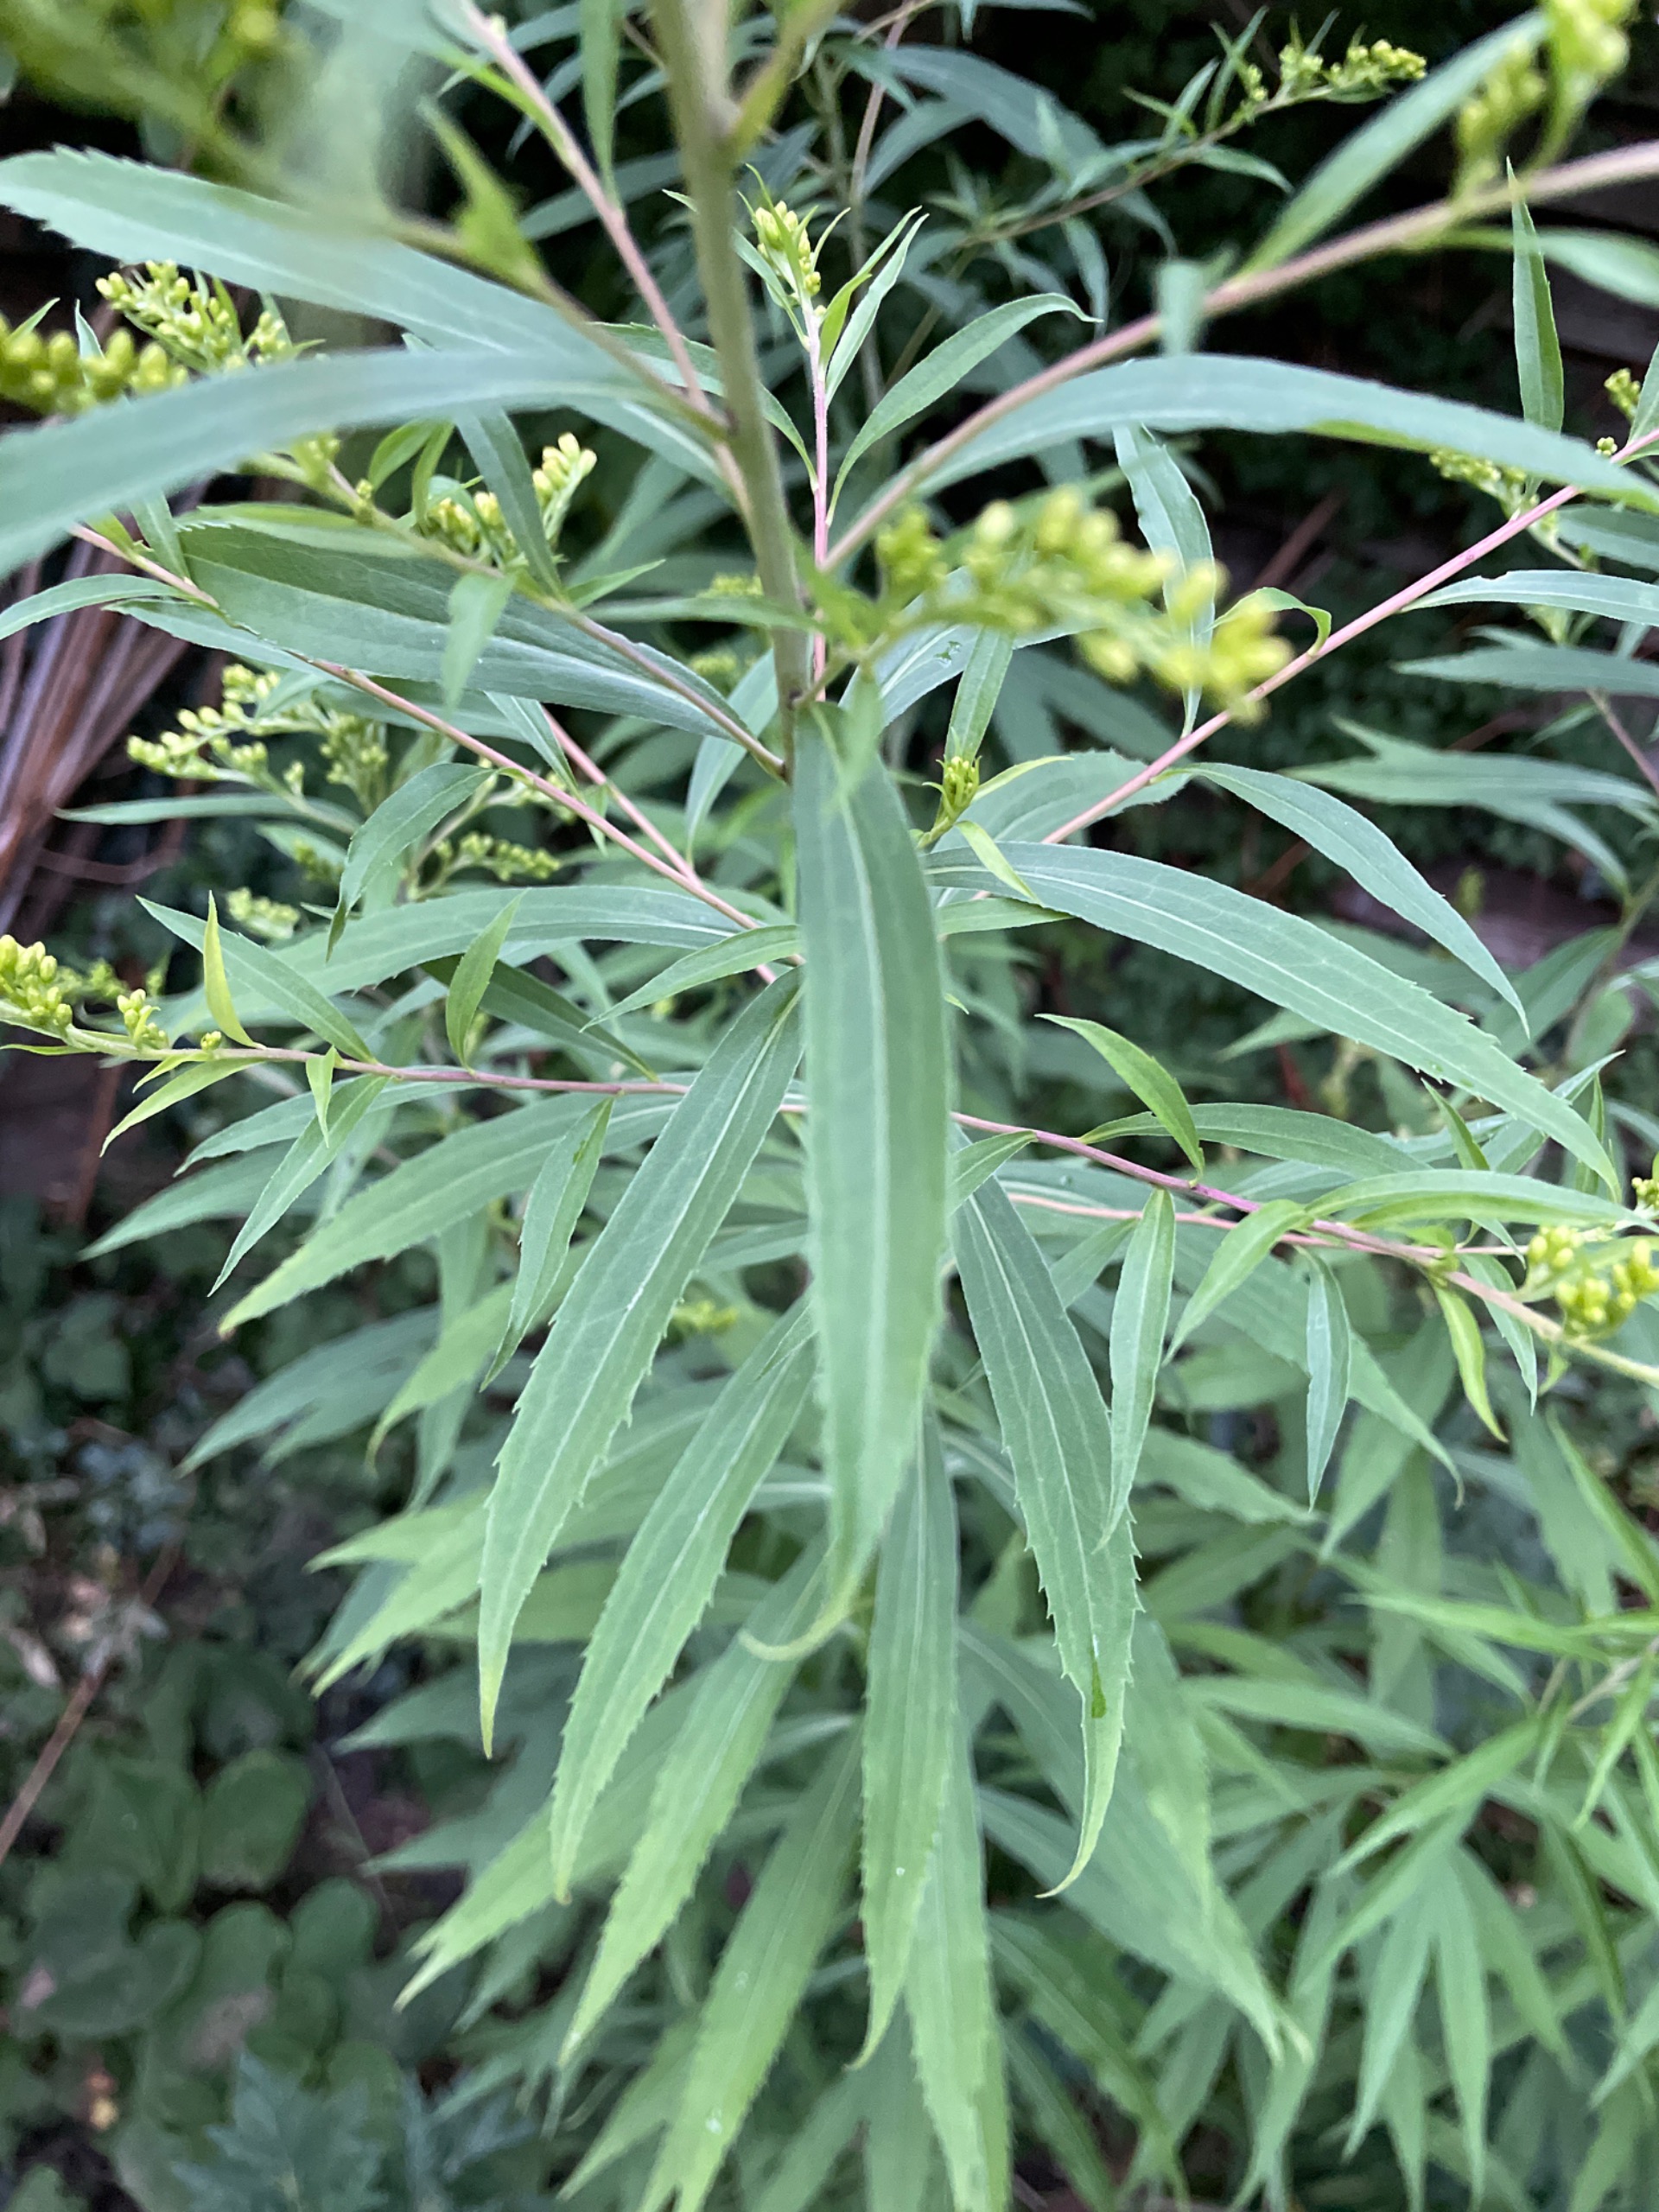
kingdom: Plantae
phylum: Tracheophyta
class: Magnoliopsida
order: Asterales
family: Asteraceae
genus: Solidago
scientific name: Solidago gigantea
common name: Sildig gyldenris
